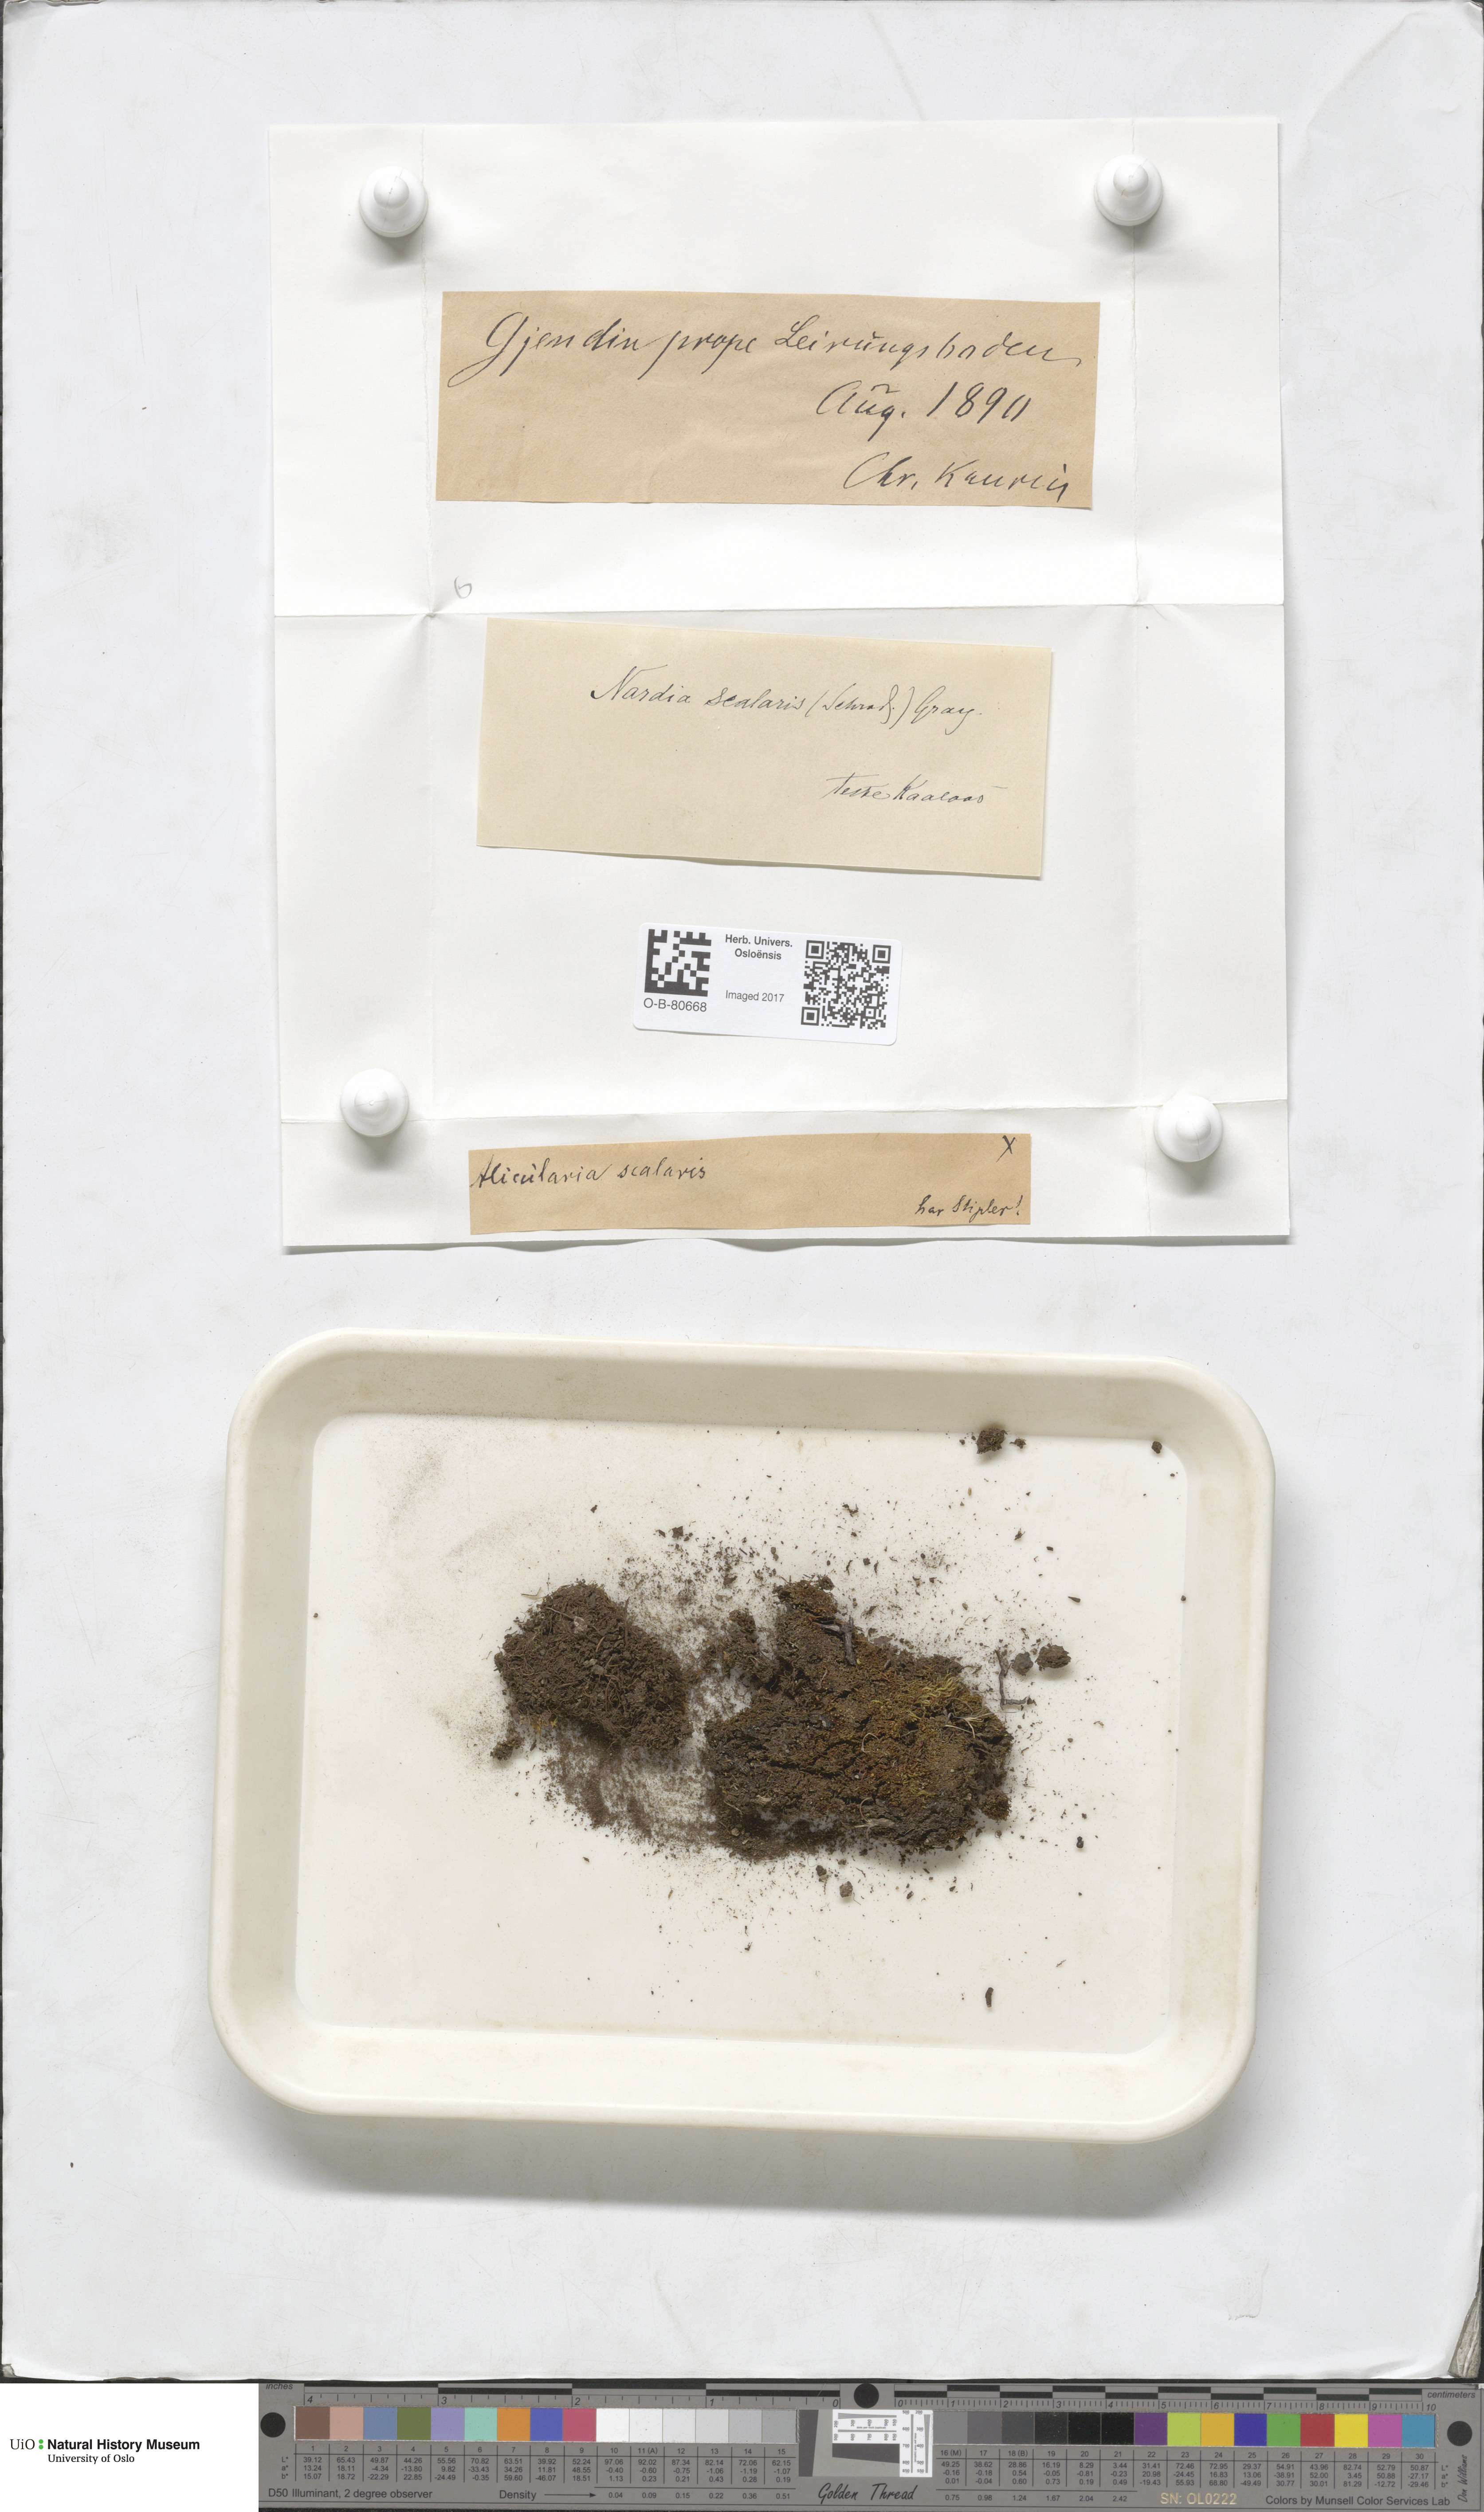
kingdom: Plantae
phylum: Marchantiophyta
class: Jungermanniopsida
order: Jungermanniales
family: Gymnomitriaceae
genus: Nardia
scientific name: Nardia scalaris
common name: Ladder flapwort
